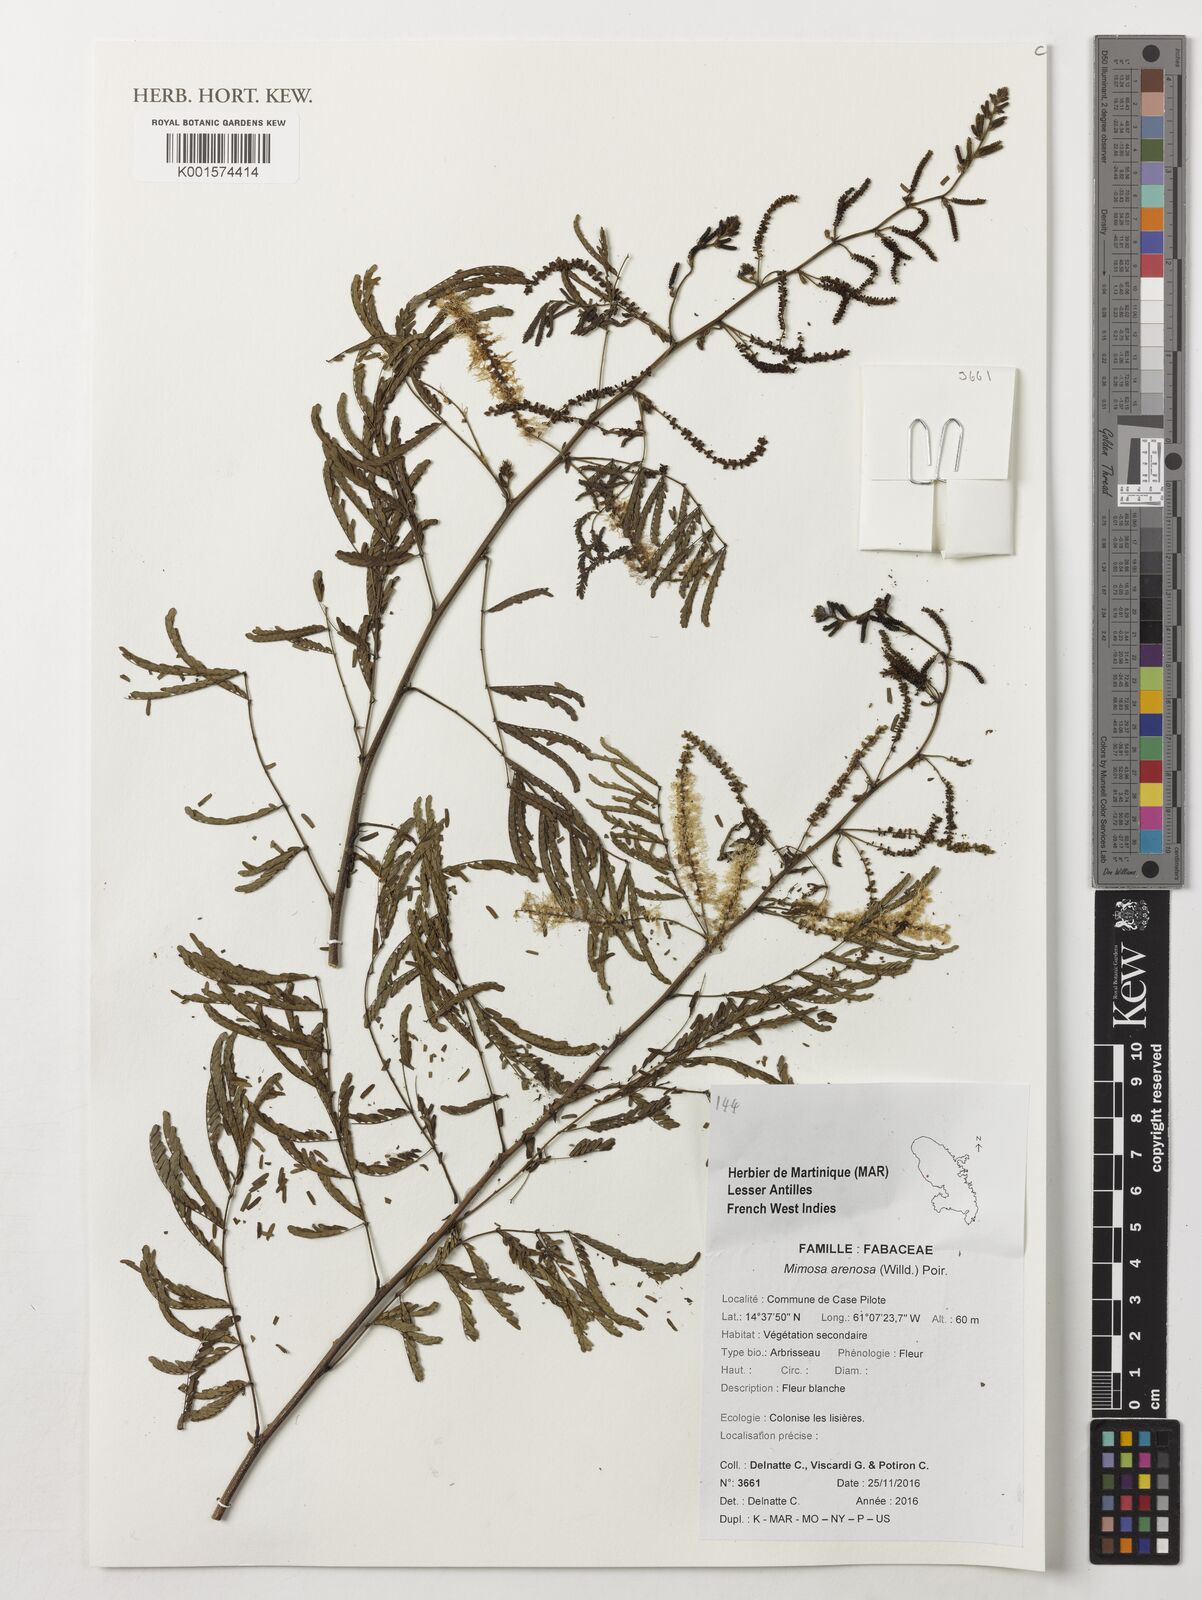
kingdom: Plantae
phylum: Tracheophyta
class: Magnoliopsida
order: Fabales
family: Polygalaceae
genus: Securidaca
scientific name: Securidaca calophylla
